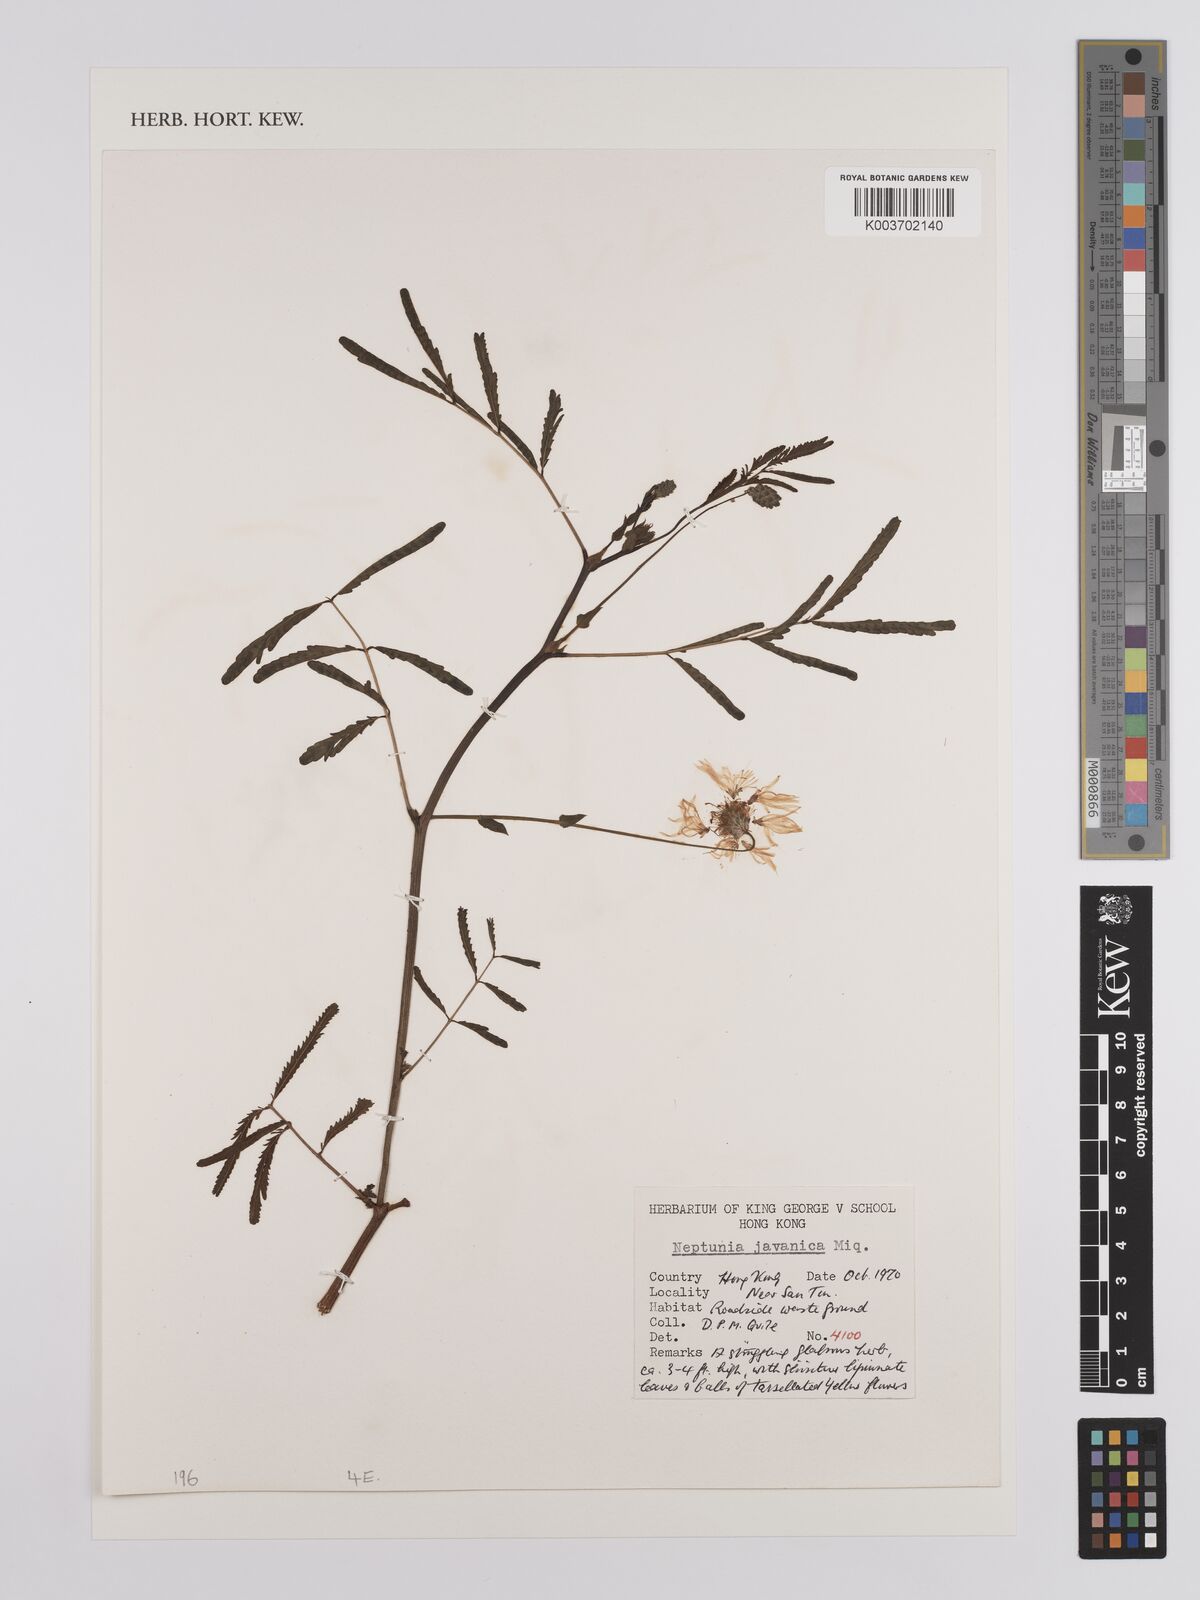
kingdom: Plantae
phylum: Tracheophyta
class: Magnoliopsida
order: Fabales
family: Fabaceae
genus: Neptunia
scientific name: Neptunia javanica
